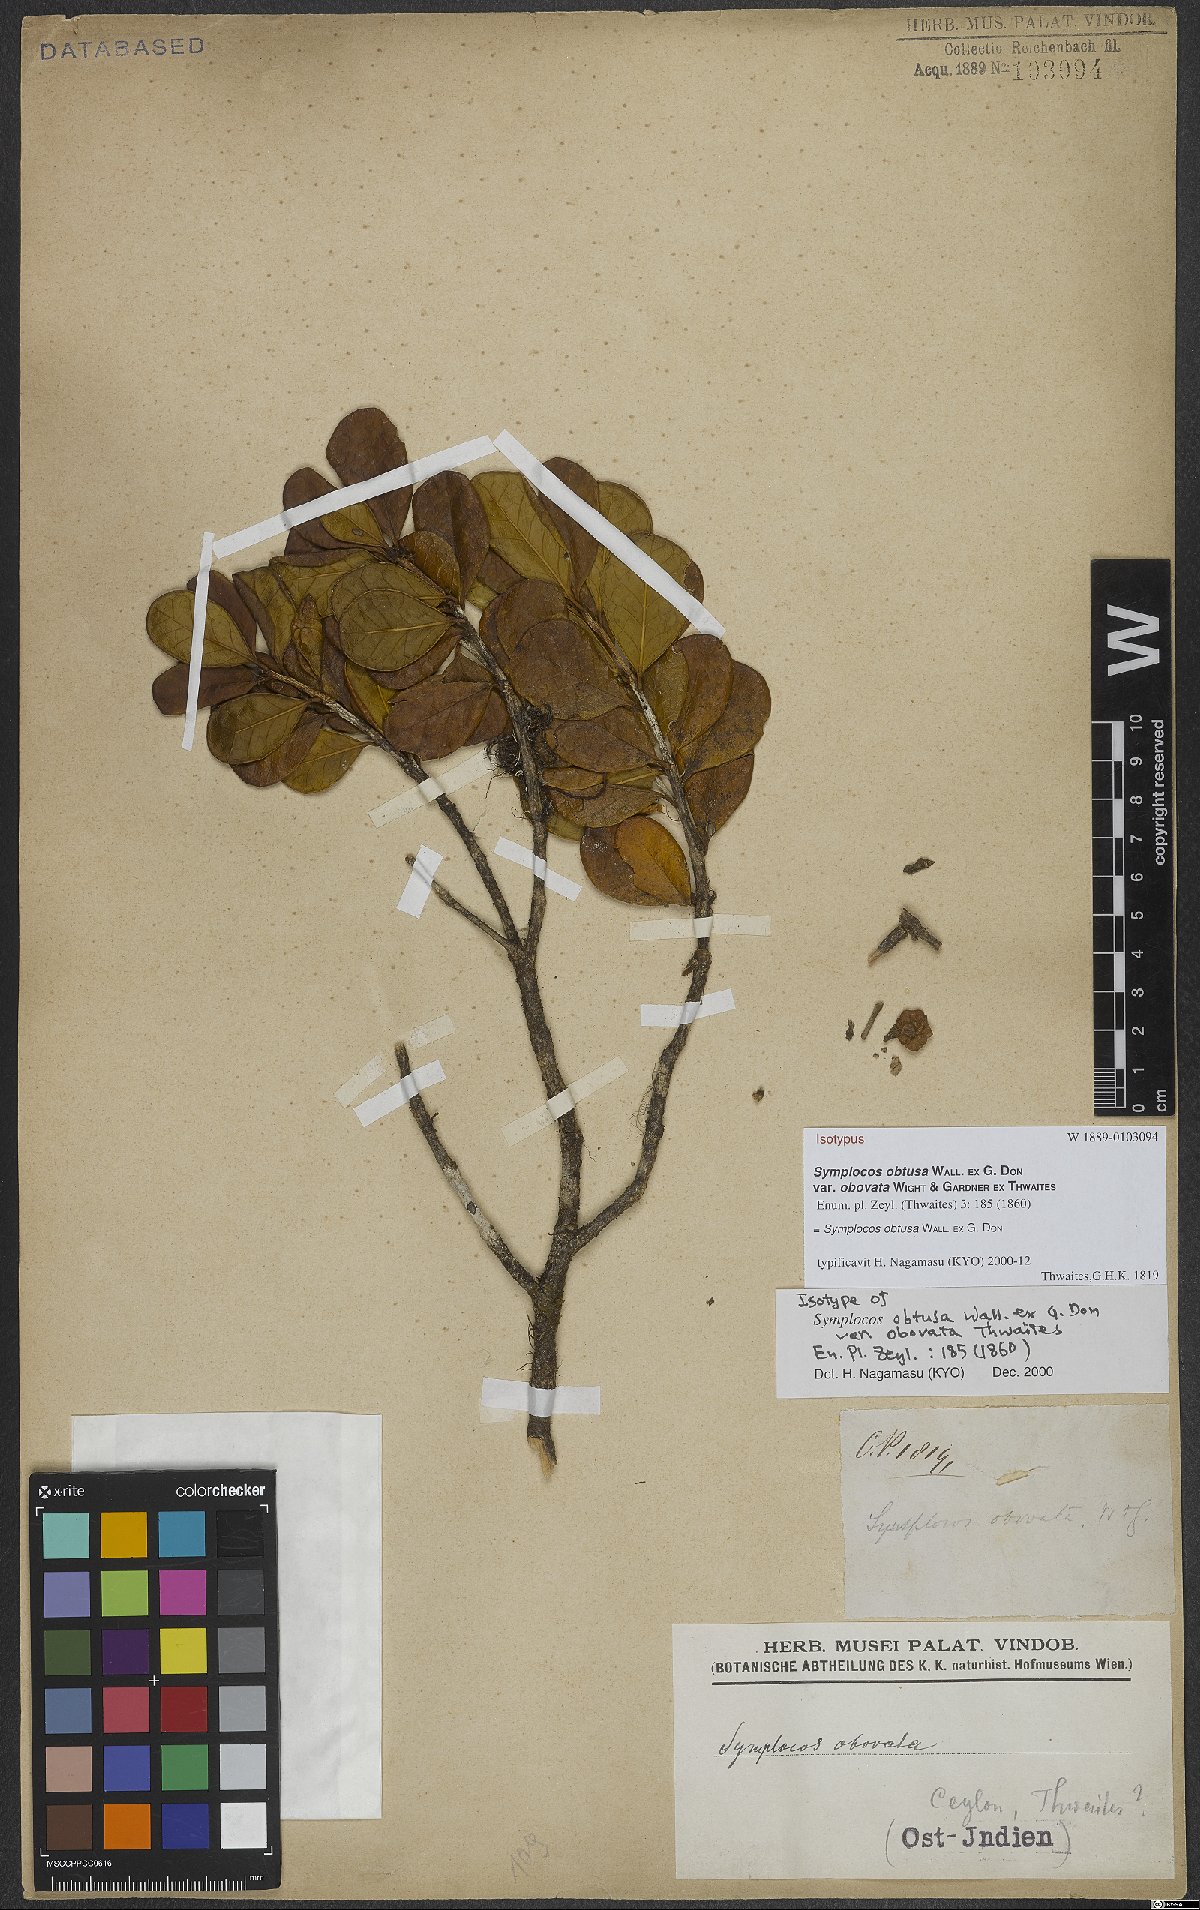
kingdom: Plantae
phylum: Tracheophyta
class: Magnoliopsida
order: Ericales
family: Symplocaceae
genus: Symplocos
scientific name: Symplocos obtusa
